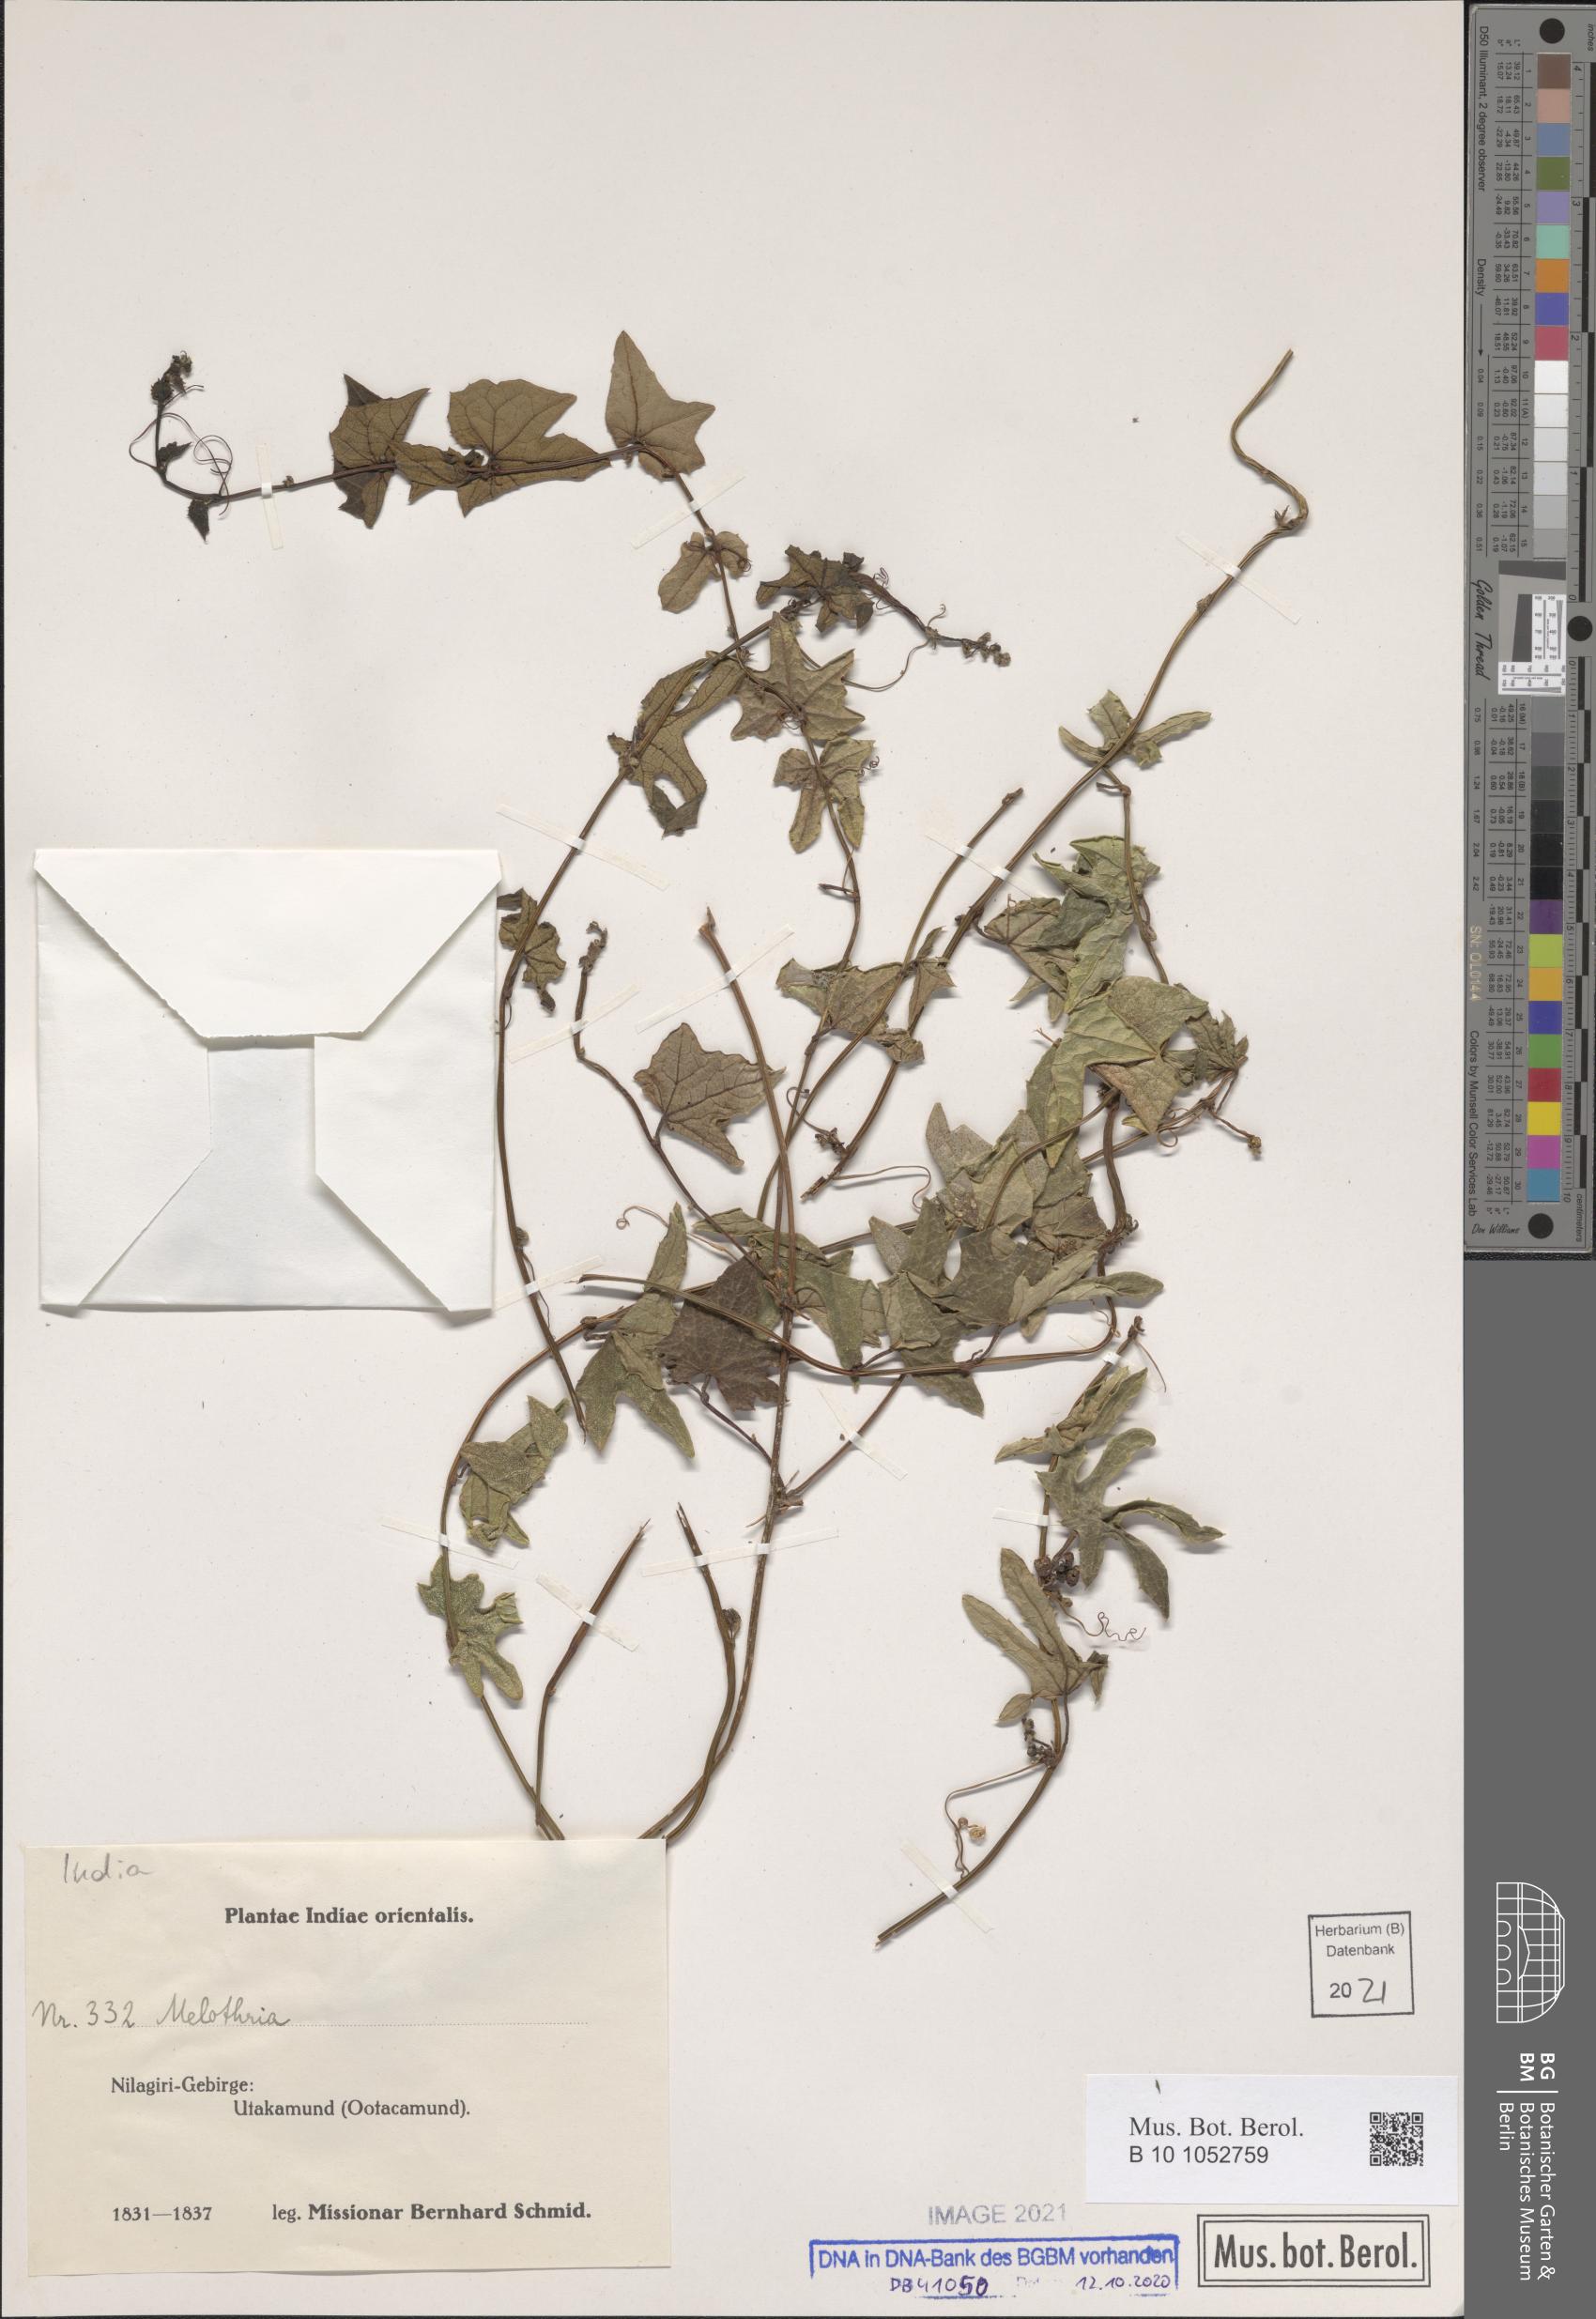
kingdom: Plantae
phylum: Tracheophyta
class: Magnoliopsida
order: Cucurbitales
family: Cucurbitaceae
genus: Melothria
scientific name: Melothria
